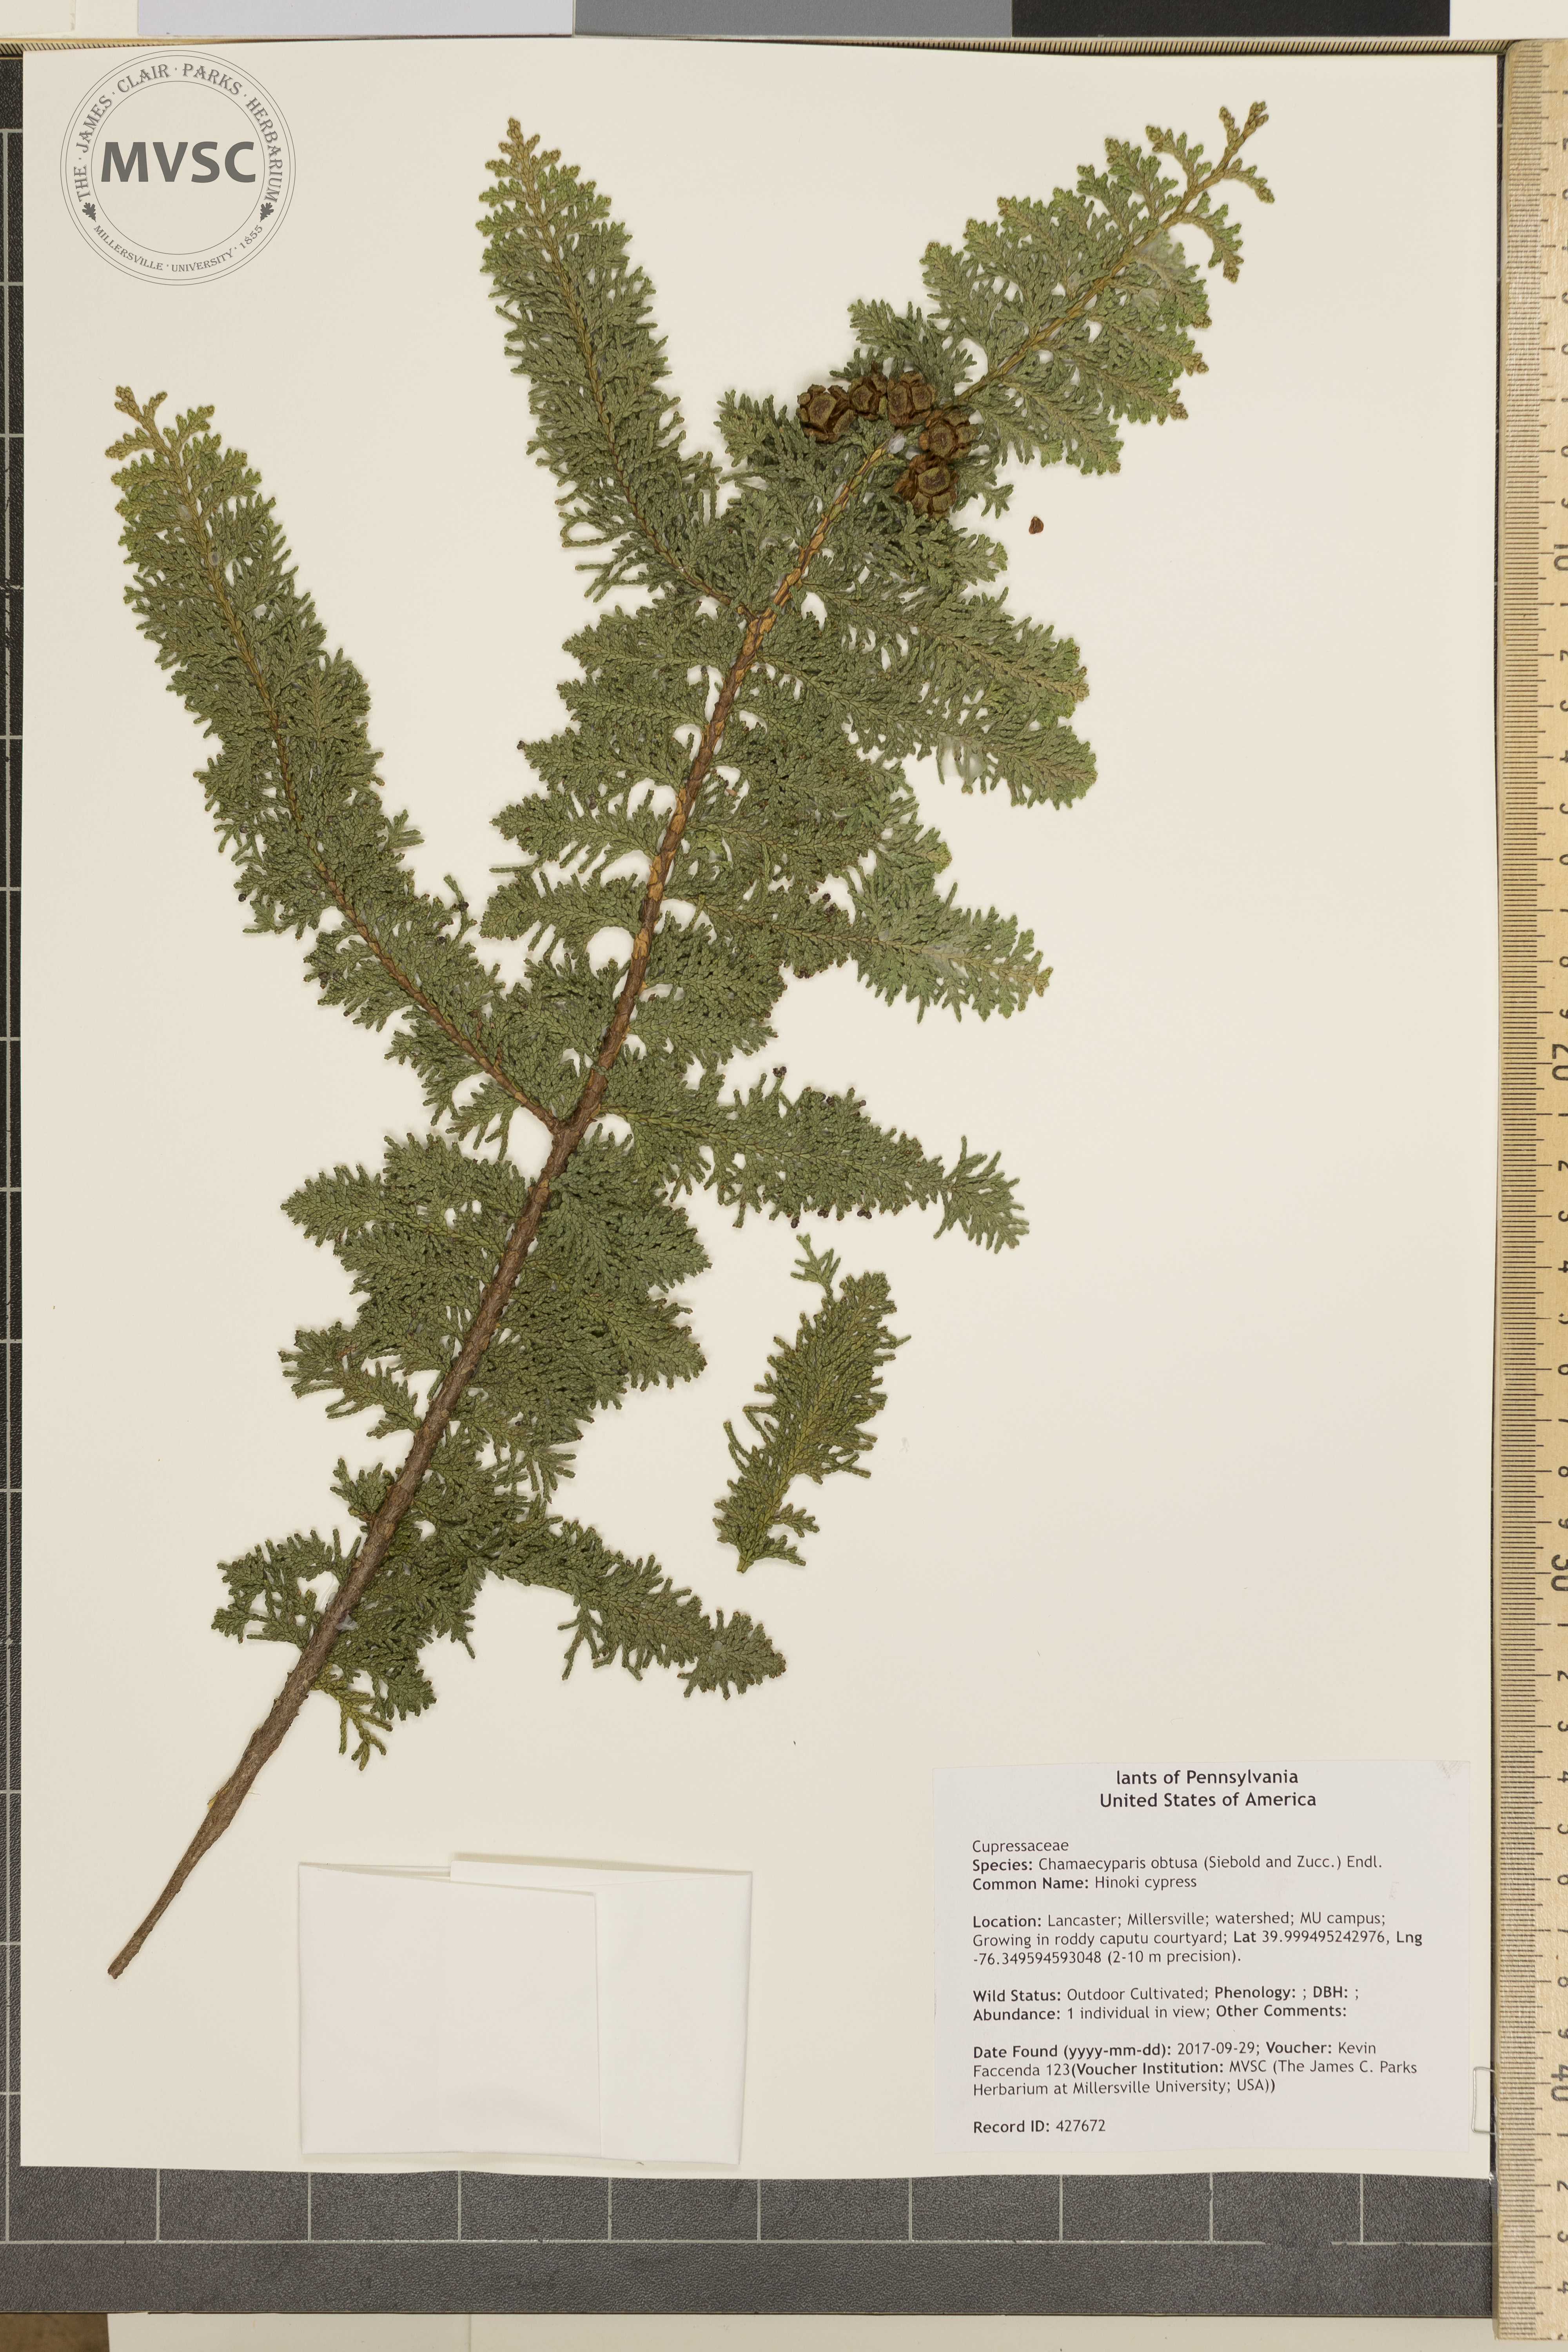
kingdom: Plantae
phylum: Tracheophyta
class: Pinopsida
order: Pinales
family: Cupressaceae
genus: Chamaecyparis
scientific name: Chamaecyparis obtusa
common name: Hinoki cypress
